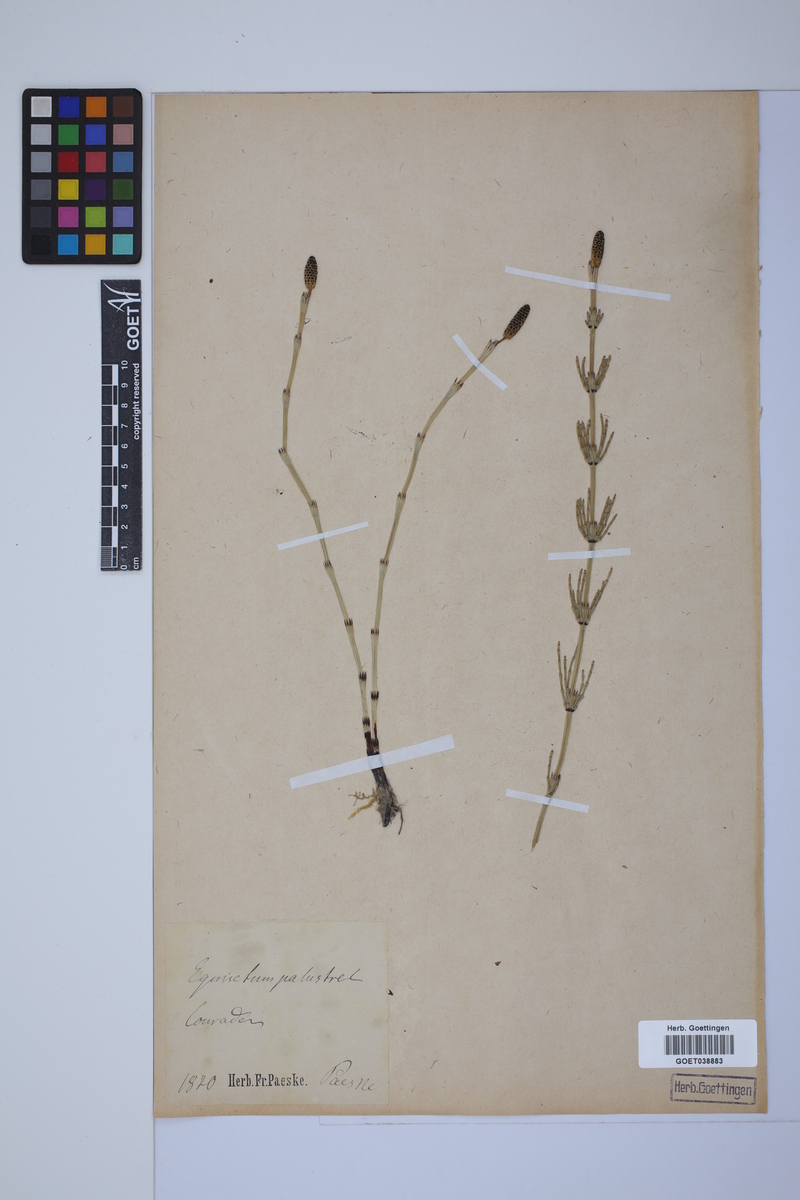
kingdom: Plantae
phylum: Tracheophyta
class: Polypodiopsida
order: Equisetales
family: Equisetaceae
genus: Equisetum
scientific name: Equisetum palustre
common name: Marsh horsetail
